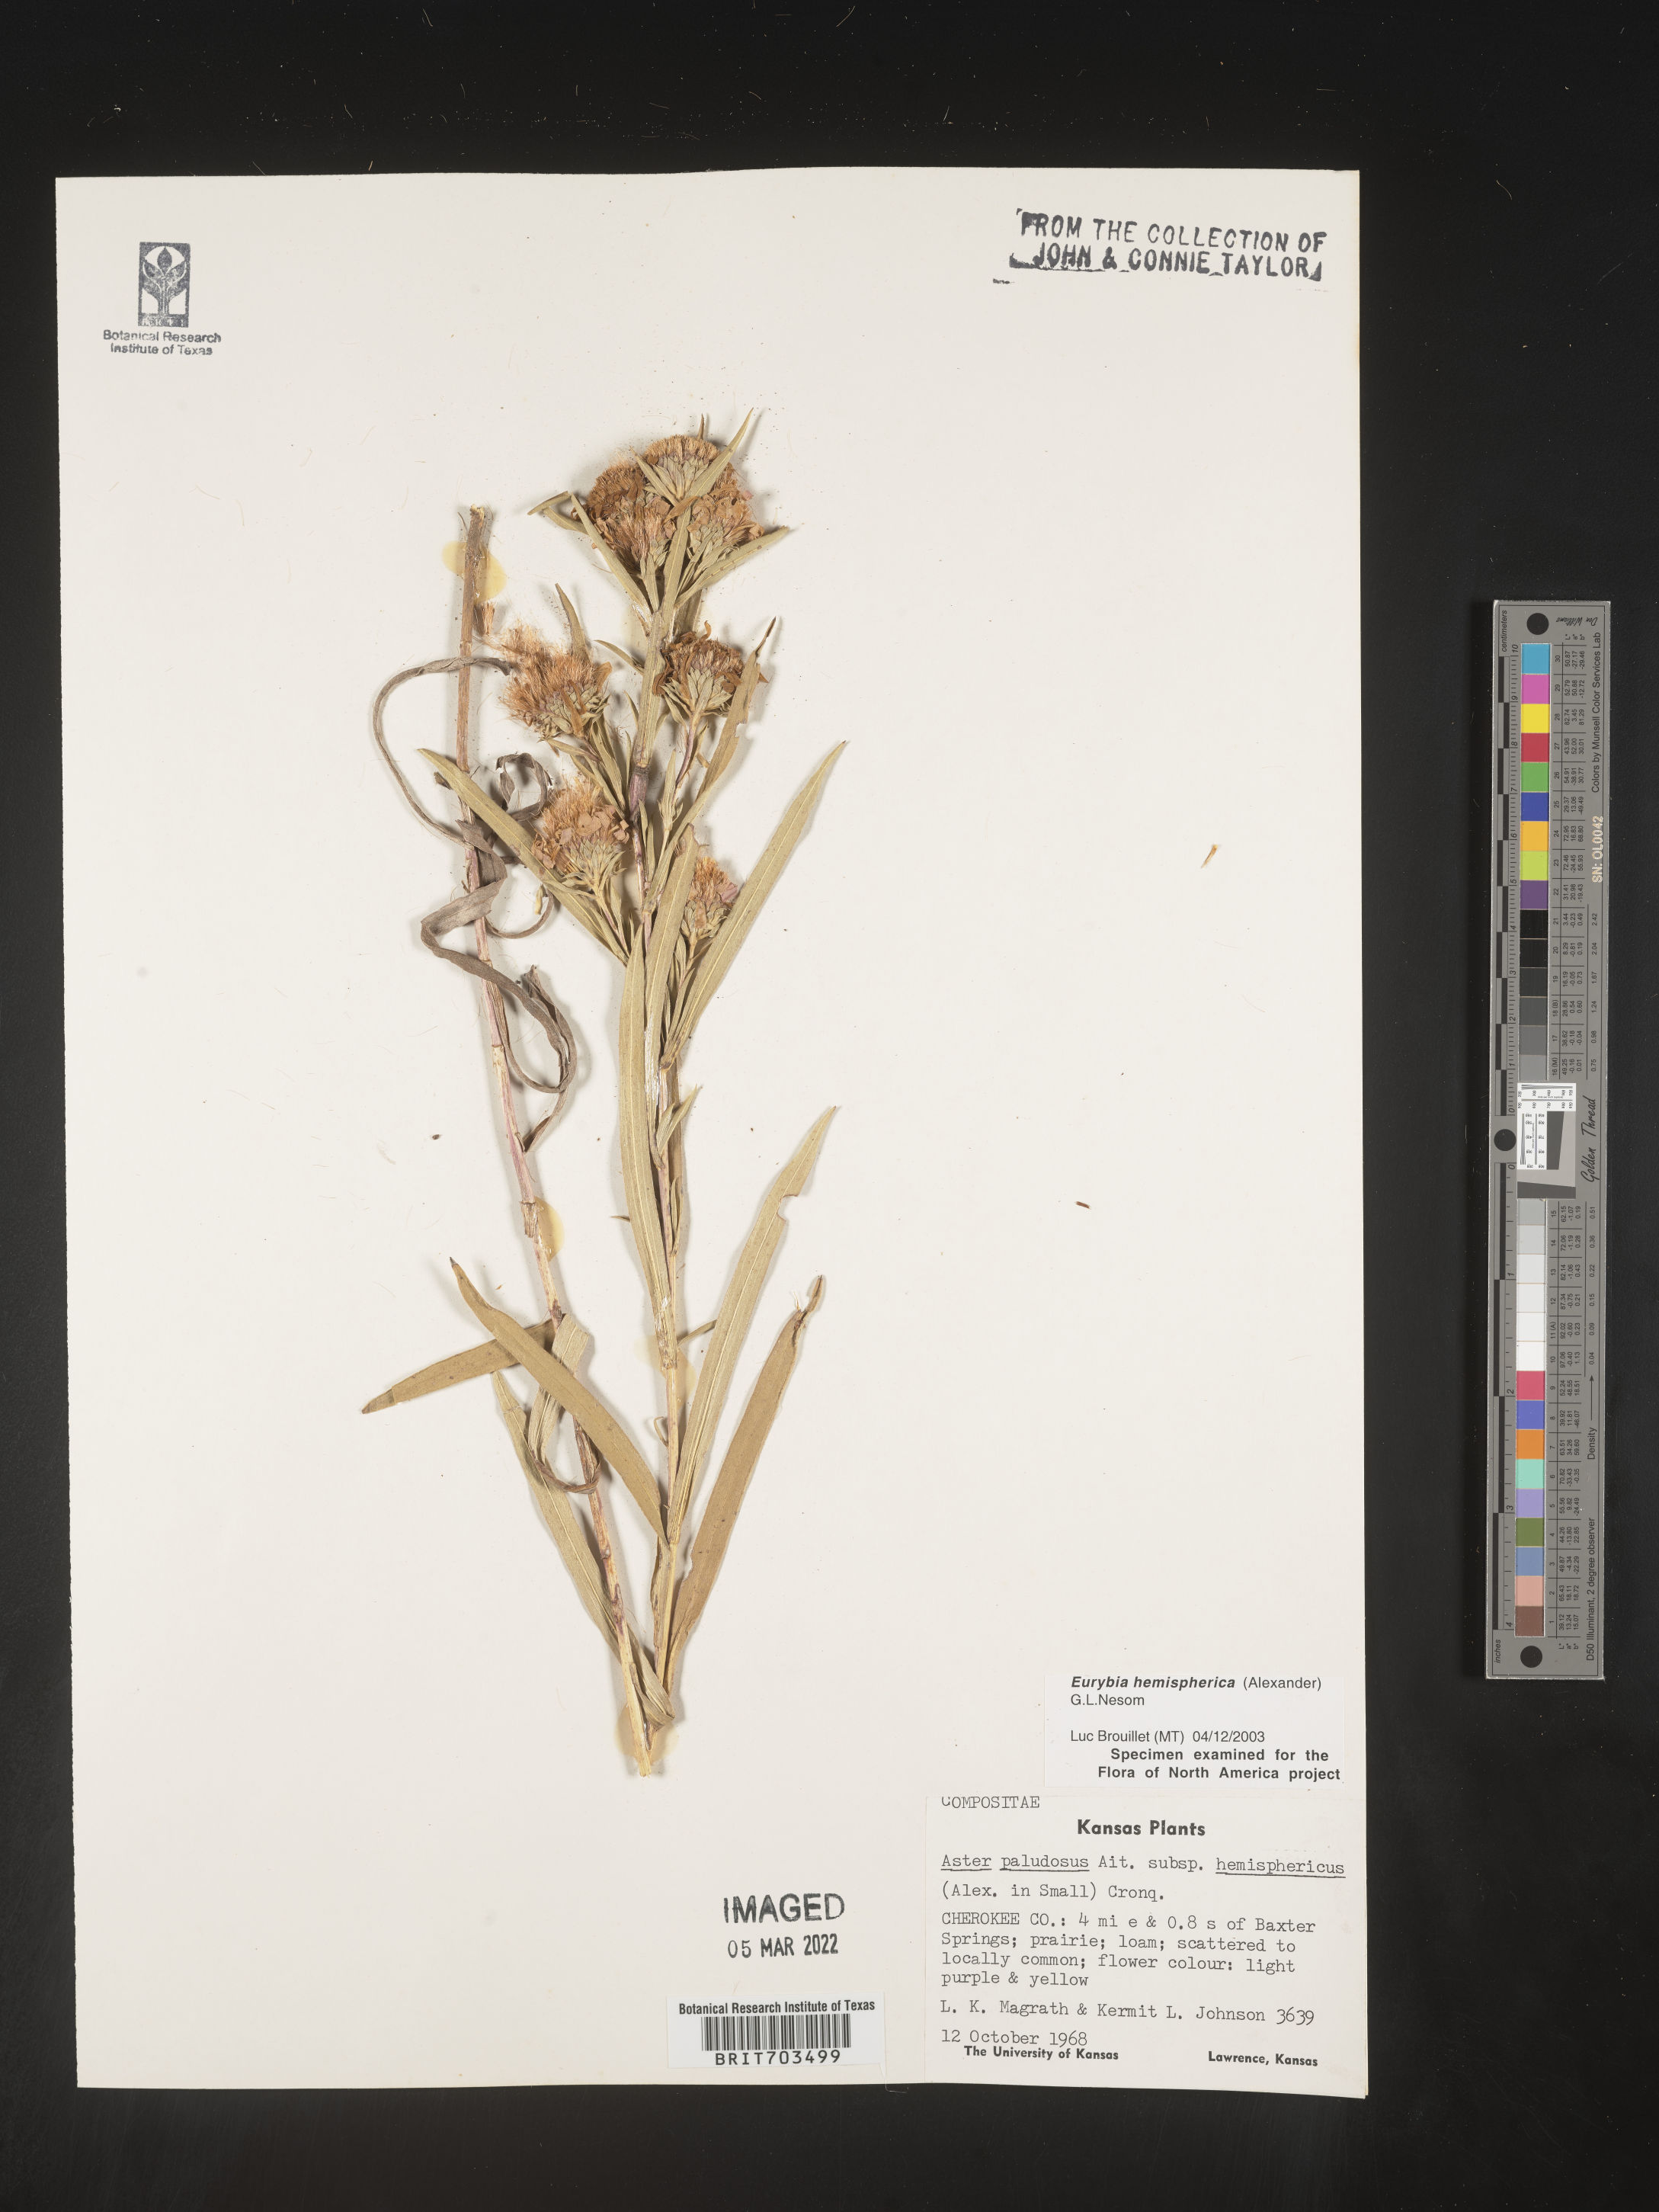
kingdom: Plantae
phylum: Tracheophyta
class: Magnoliopsida
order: Asterales
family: Asteraceae
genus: Eurybia
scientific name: Eurybia hemispherica
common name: Showy aster
